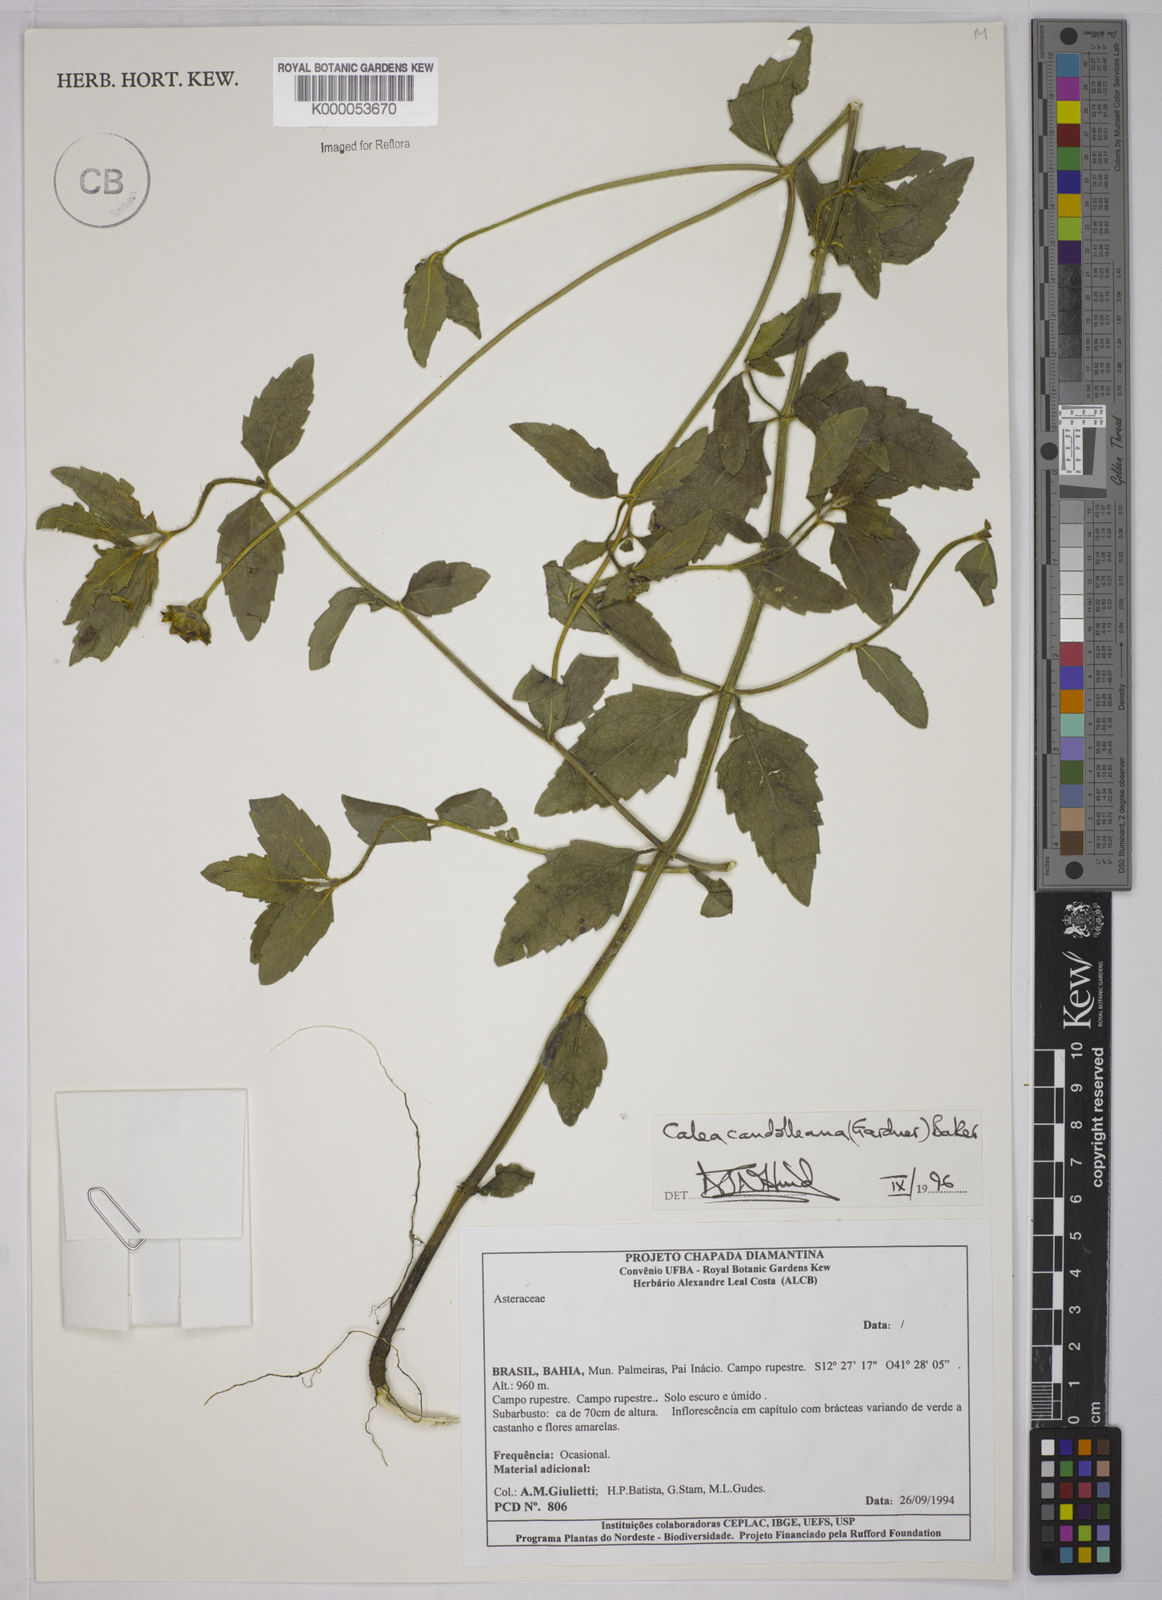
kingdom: Plantae
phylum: Tracheophyta
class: Magnoliopsida
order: Asterales
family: Asteraceae
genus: Calea
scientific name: Calea candolleana
